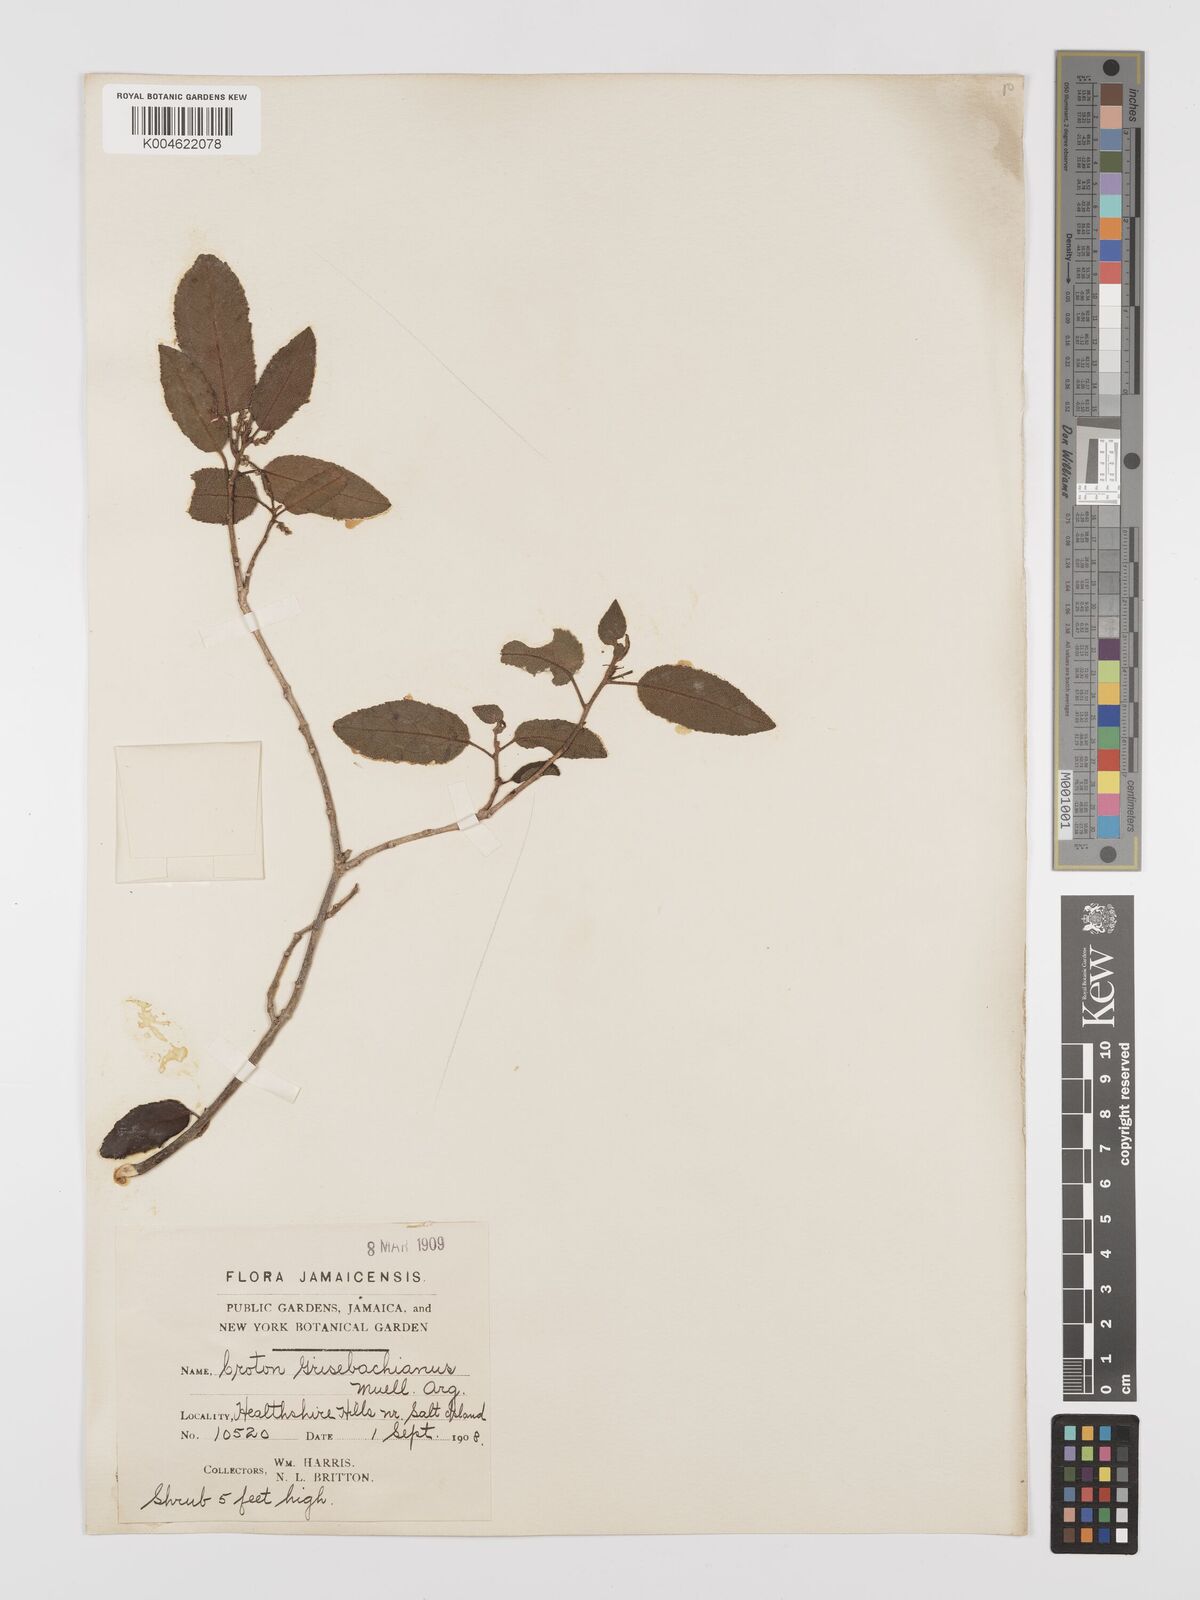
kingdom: Plantae
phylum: Tracheophyta
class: Magnoliopsida
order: Malpighiales
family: Euphorbiaceae
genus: Croton
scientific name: Croton grisebachianus
